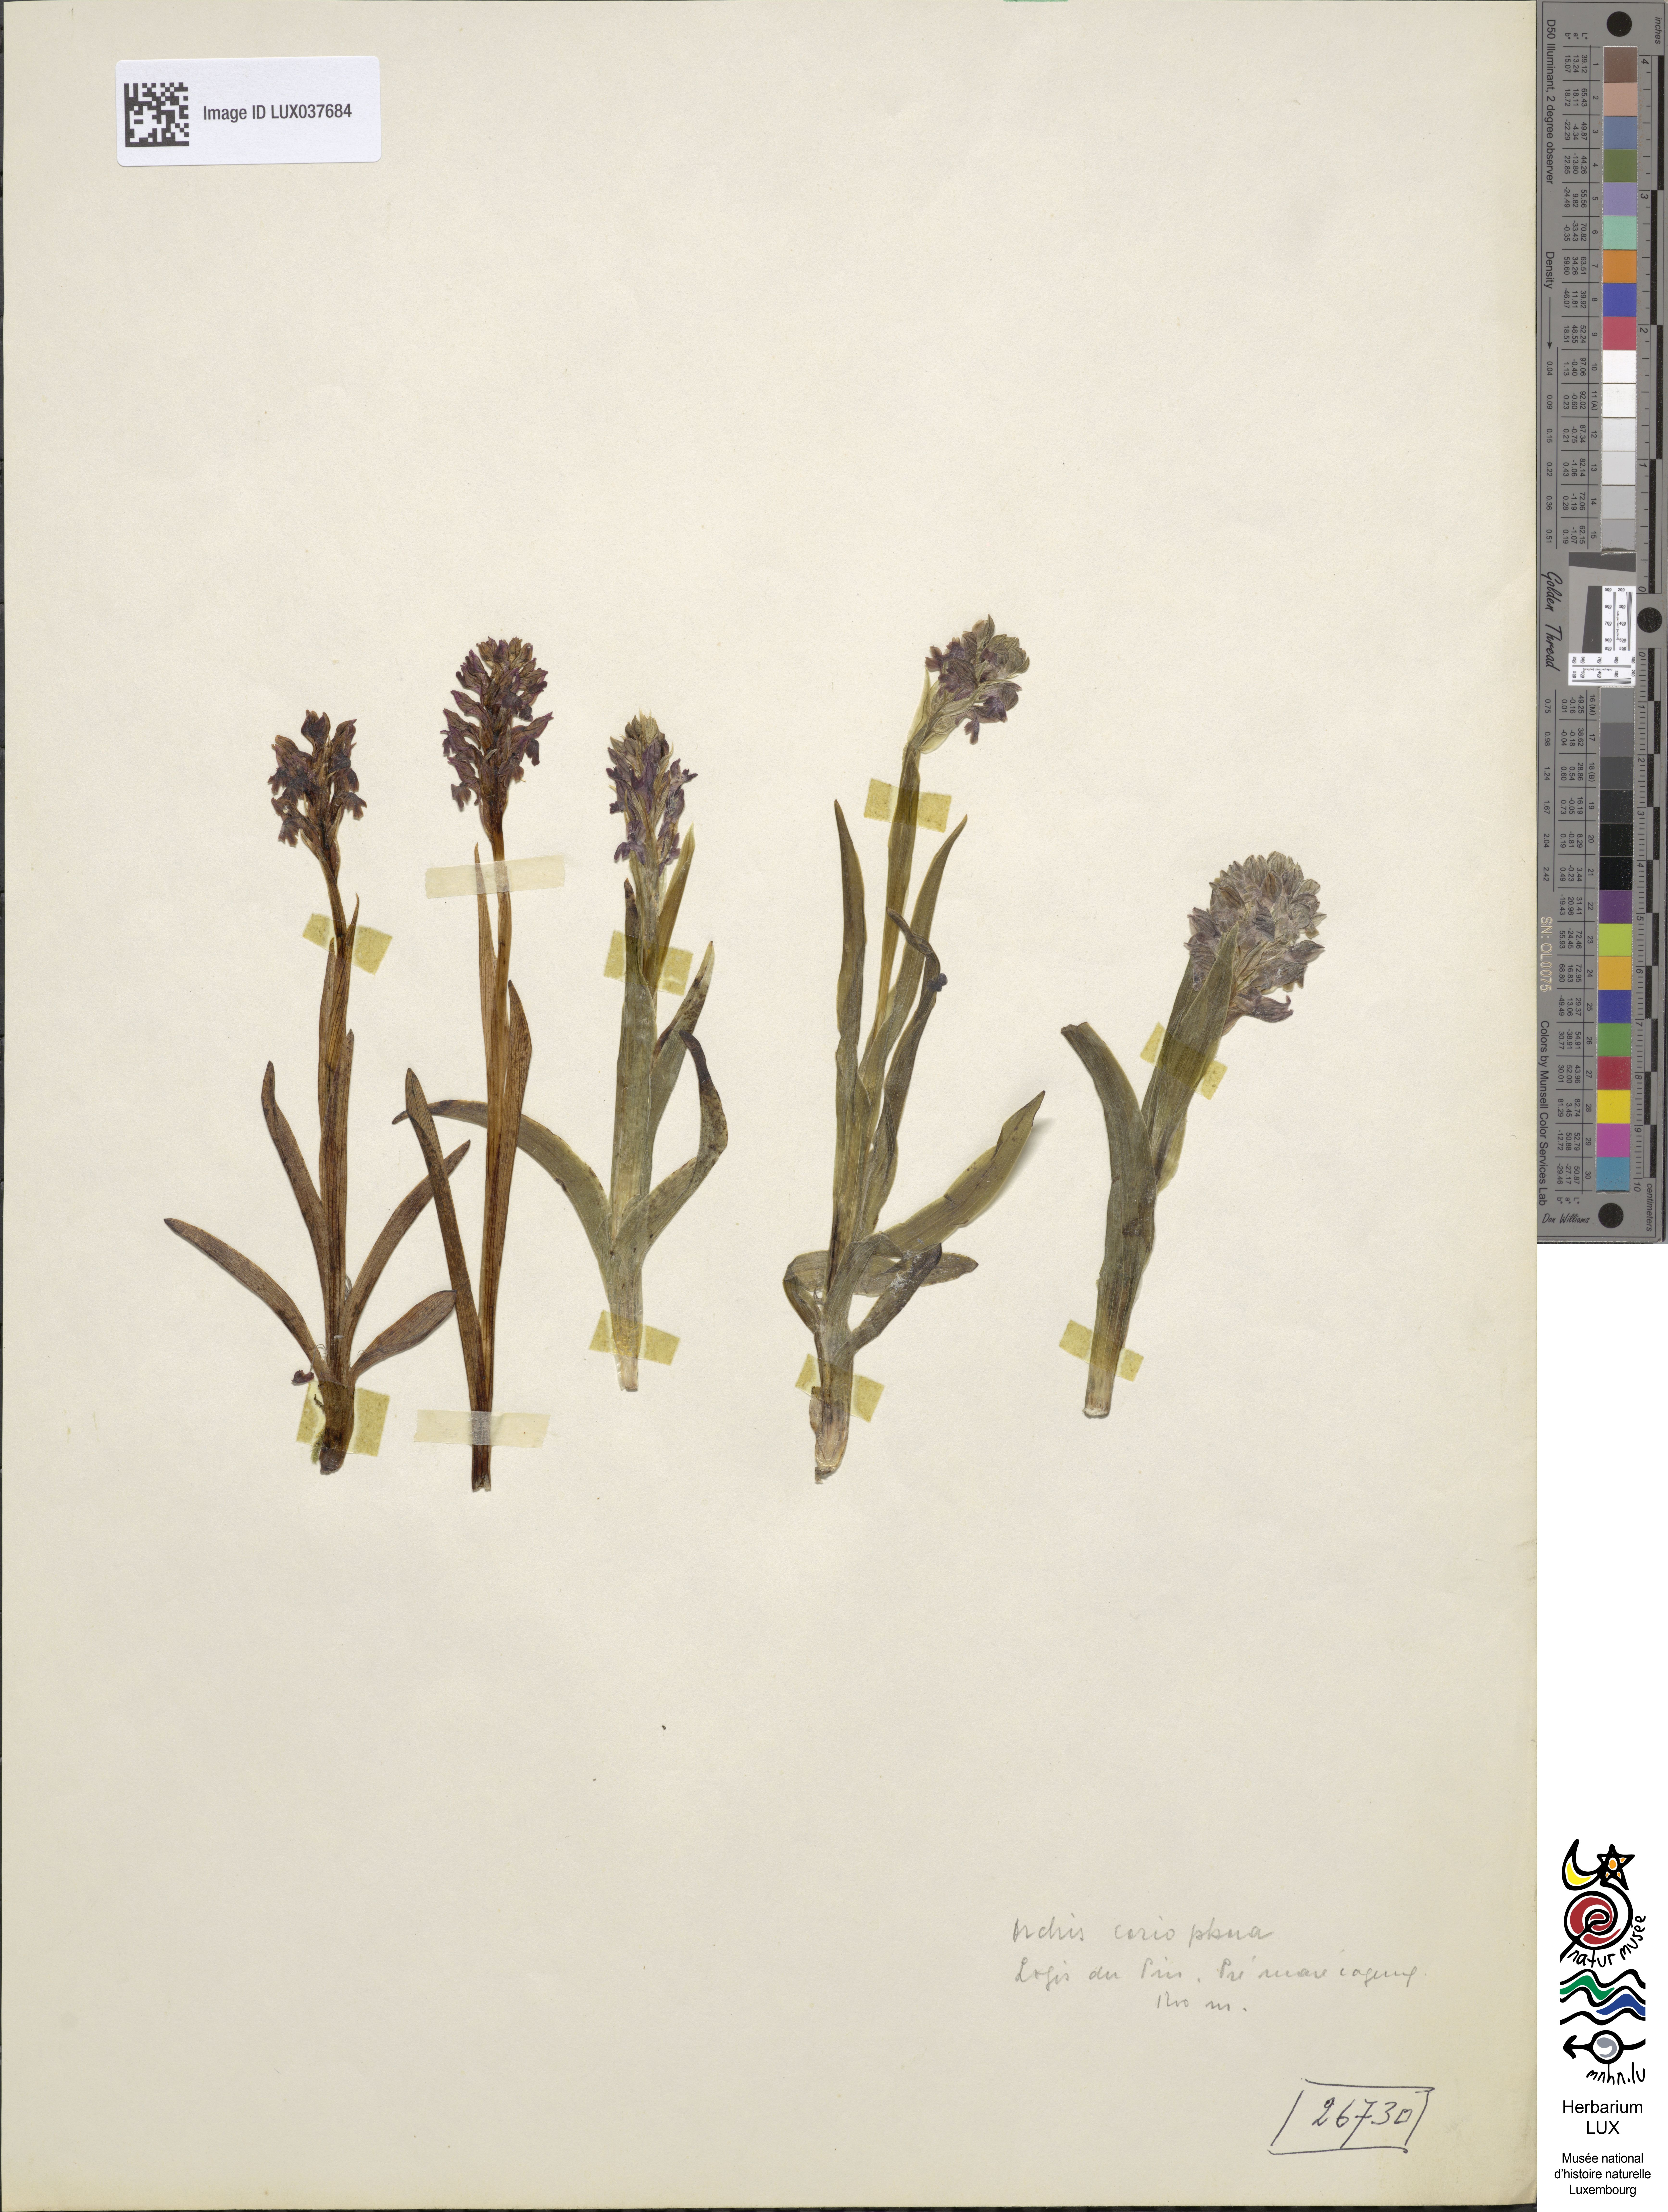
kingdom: Plantae
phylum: Tracheophyta
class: Liliopsida
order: Asparagales
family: Orchidaceae
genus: Anacamptis
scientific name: Anacamptis coriophora
